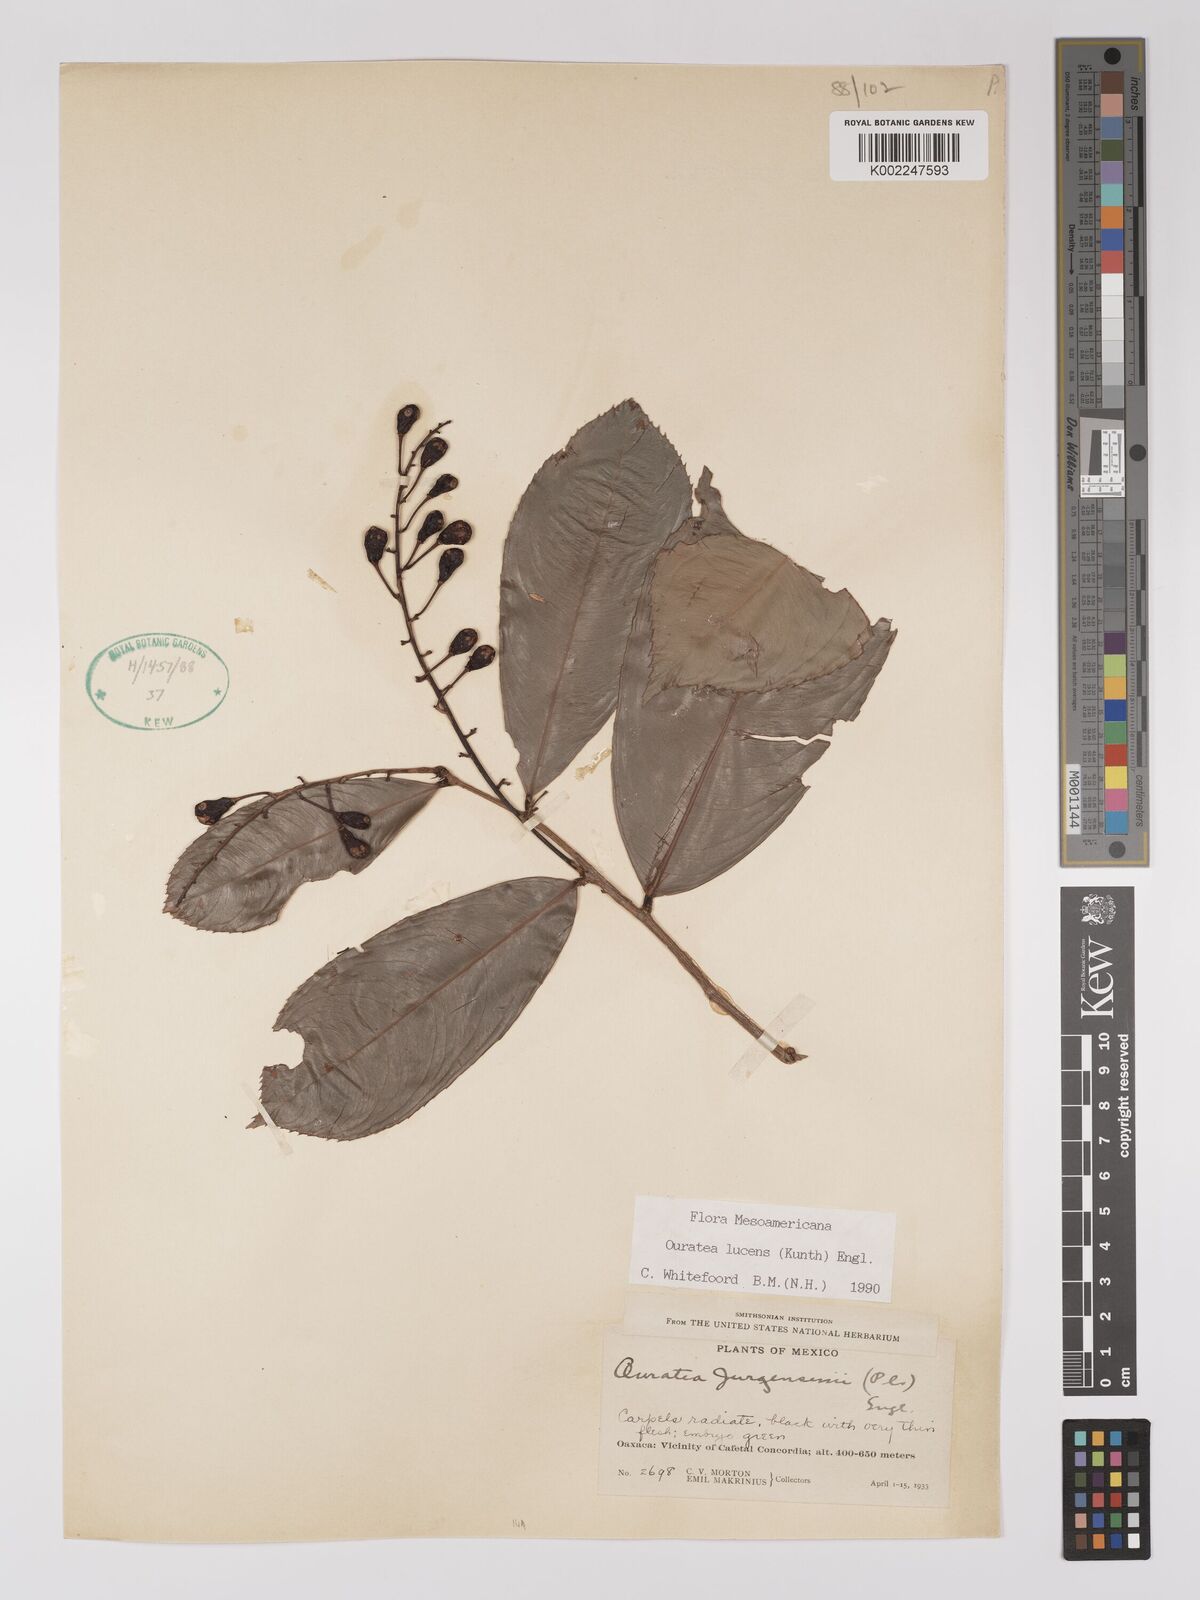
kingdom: Plantae
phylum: Tracheophyta
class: Magnoliopsida
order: Malpighiales
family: Ochnaceae
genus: Ouratea
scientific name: Ouratea lucens
